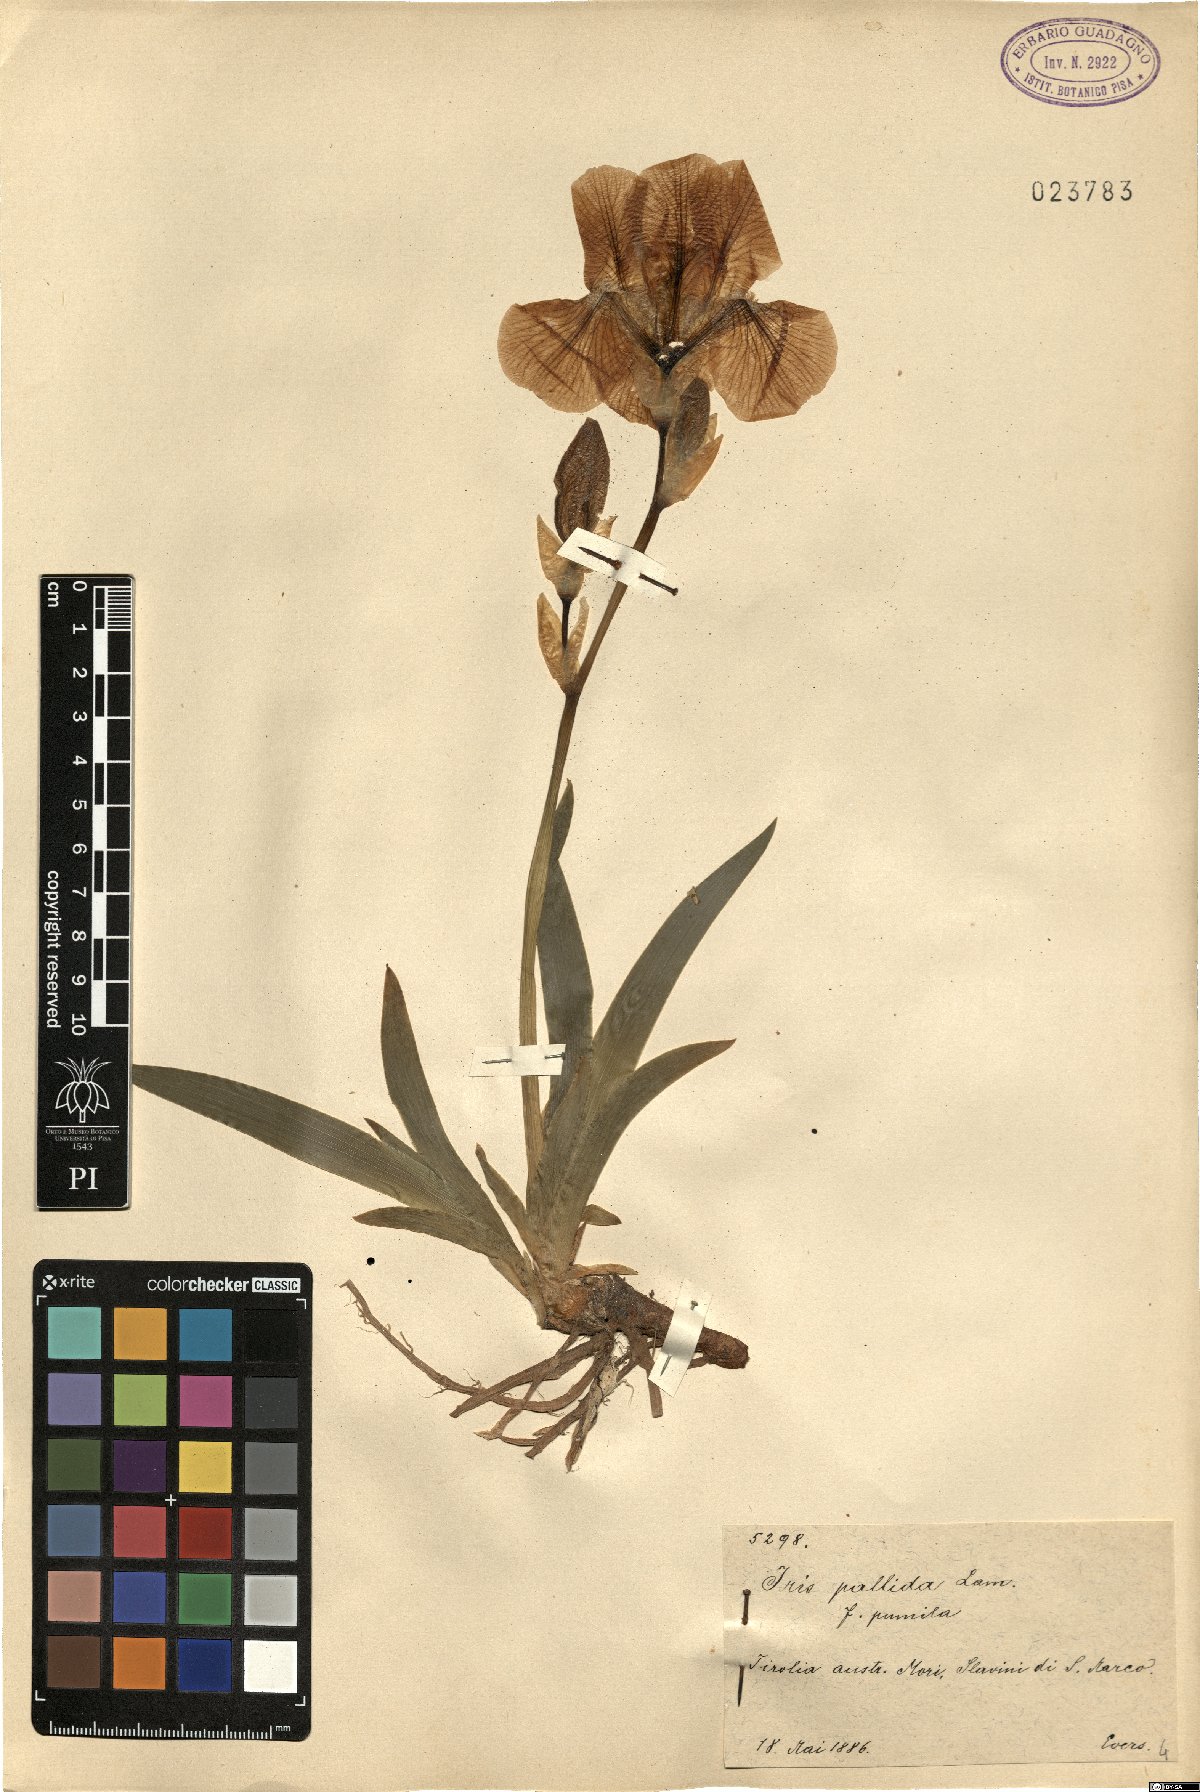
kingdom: Plantae
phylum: Tracheophyta
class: Liliopsida
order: Asparagales
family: Iridaceae
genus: Iris
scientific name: Iris pallida
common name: Sweet iris
